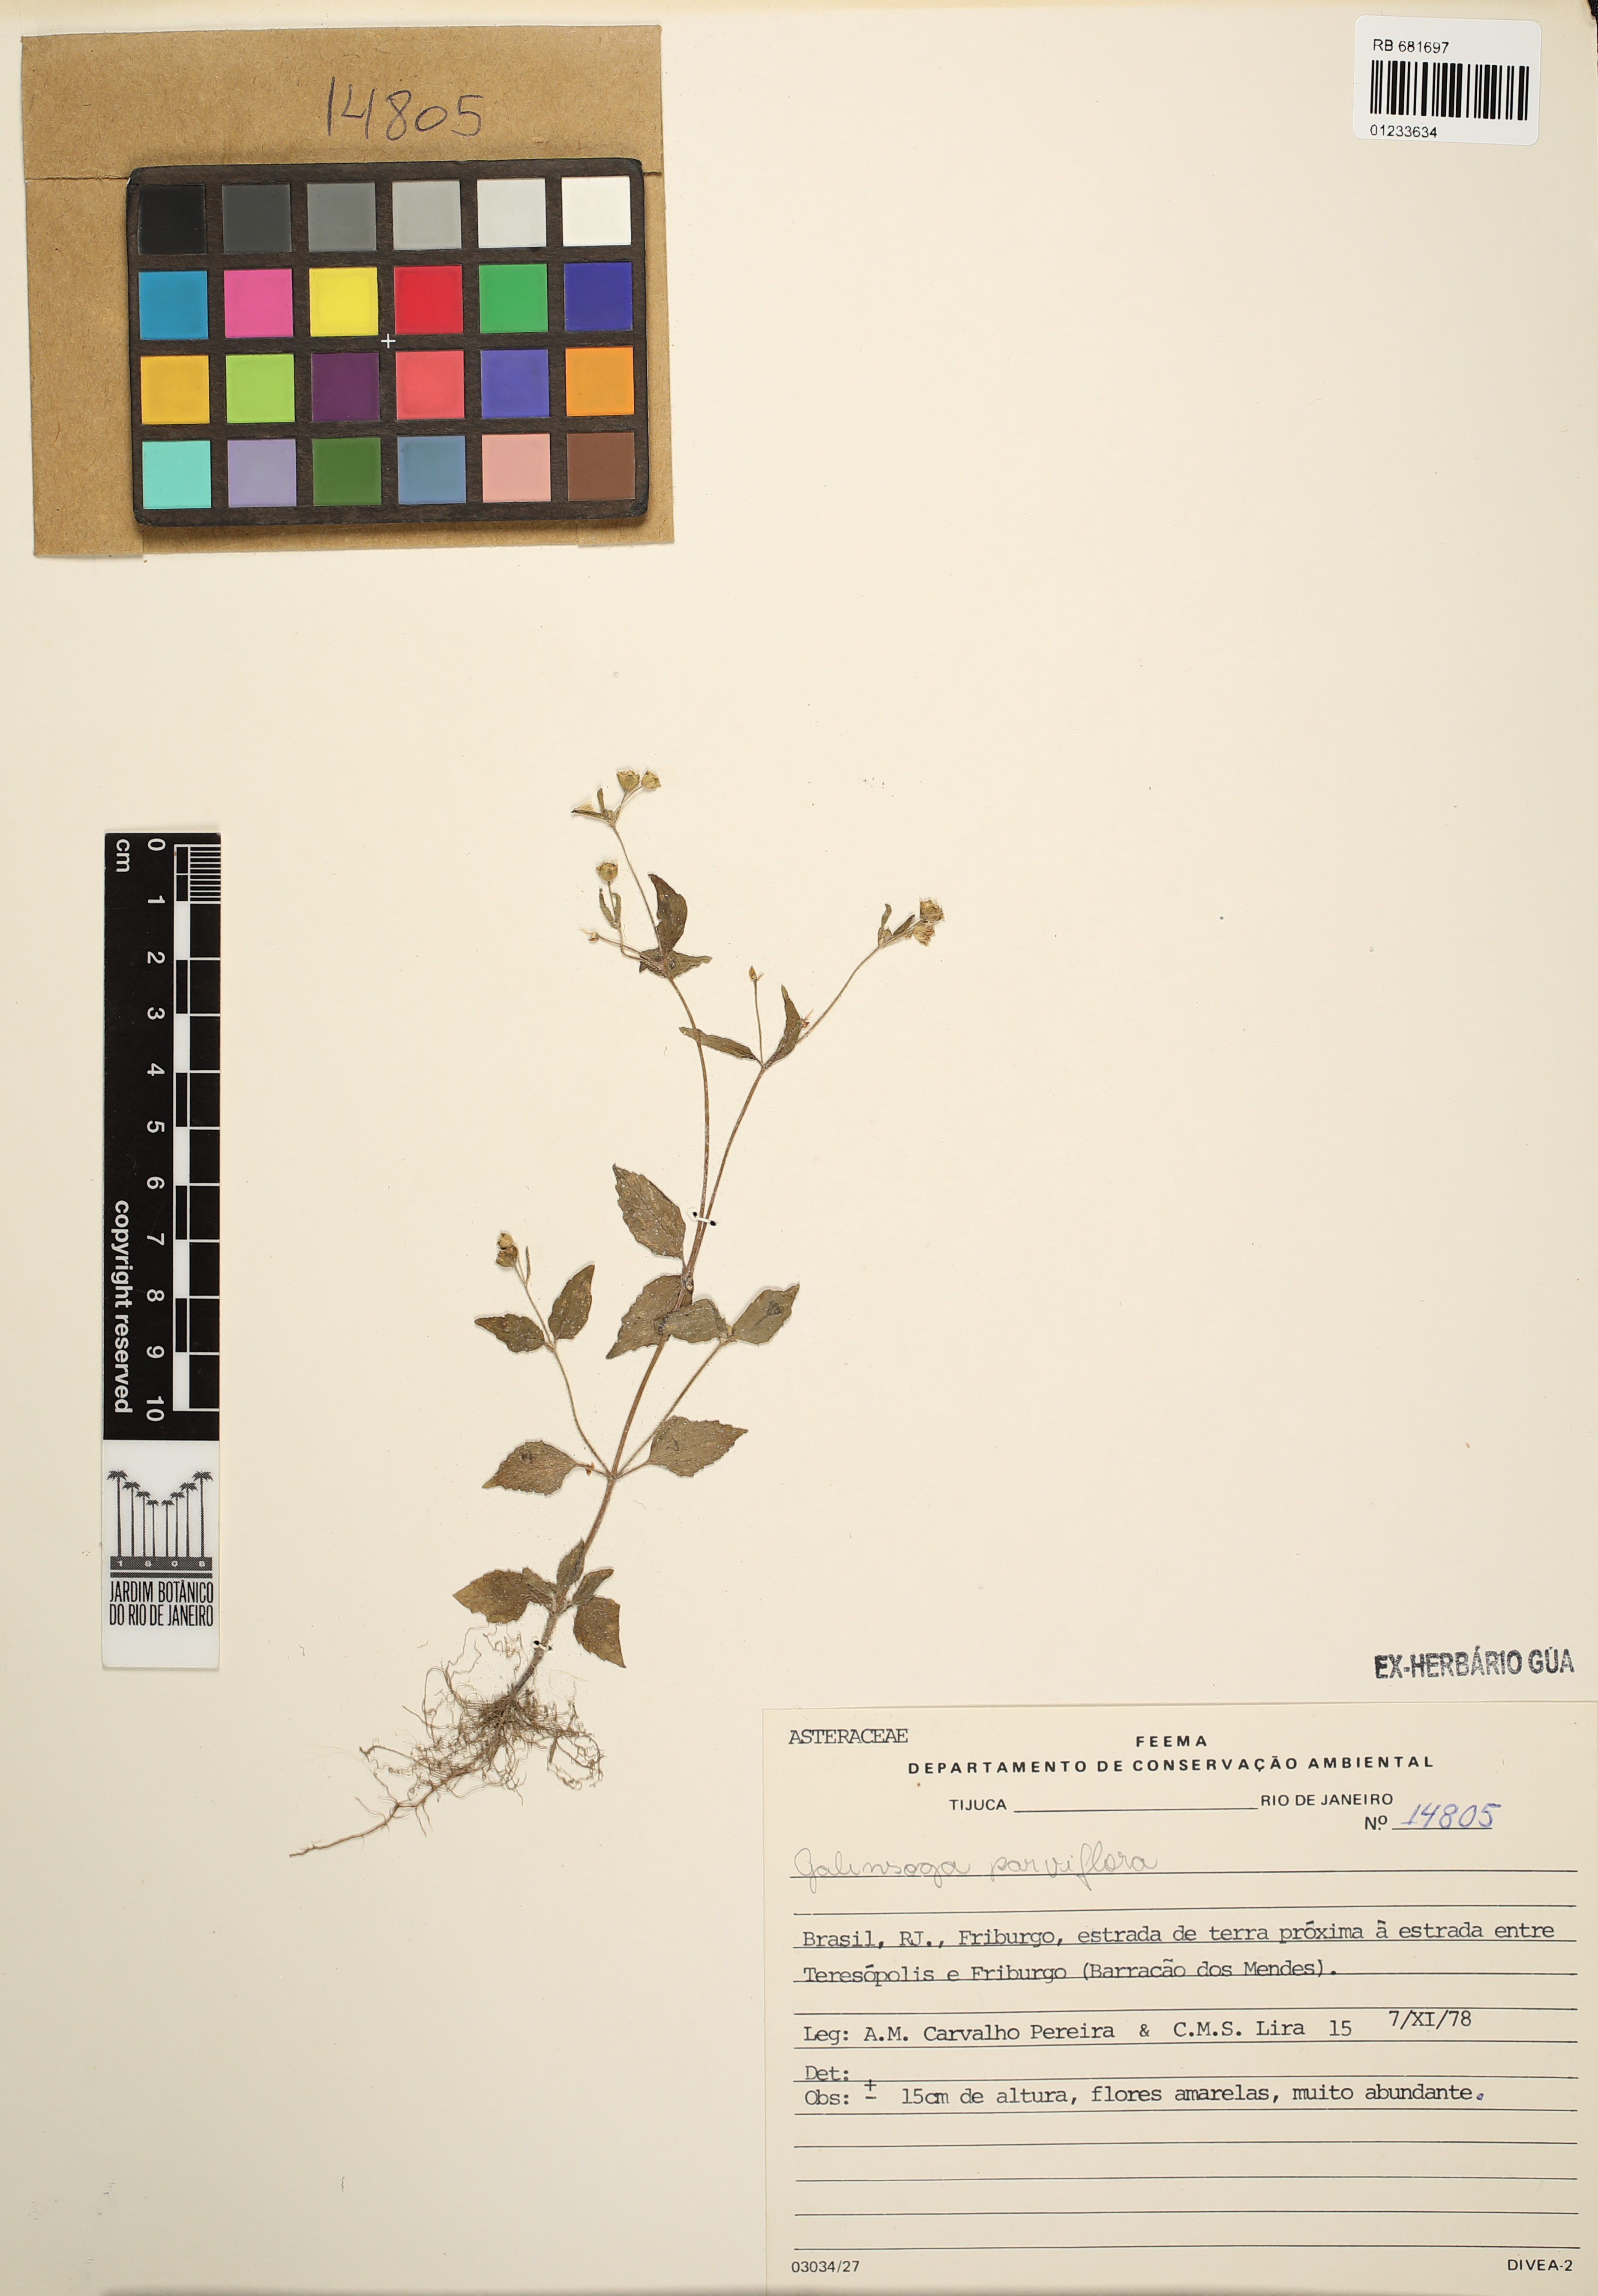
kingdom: Plantae
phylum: Tracheophyta
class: Magnoliopsida
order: Asterales
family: Asteraceae
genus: Galinsoga
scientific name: Galinsoga parviflora
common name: Gallant soldier
